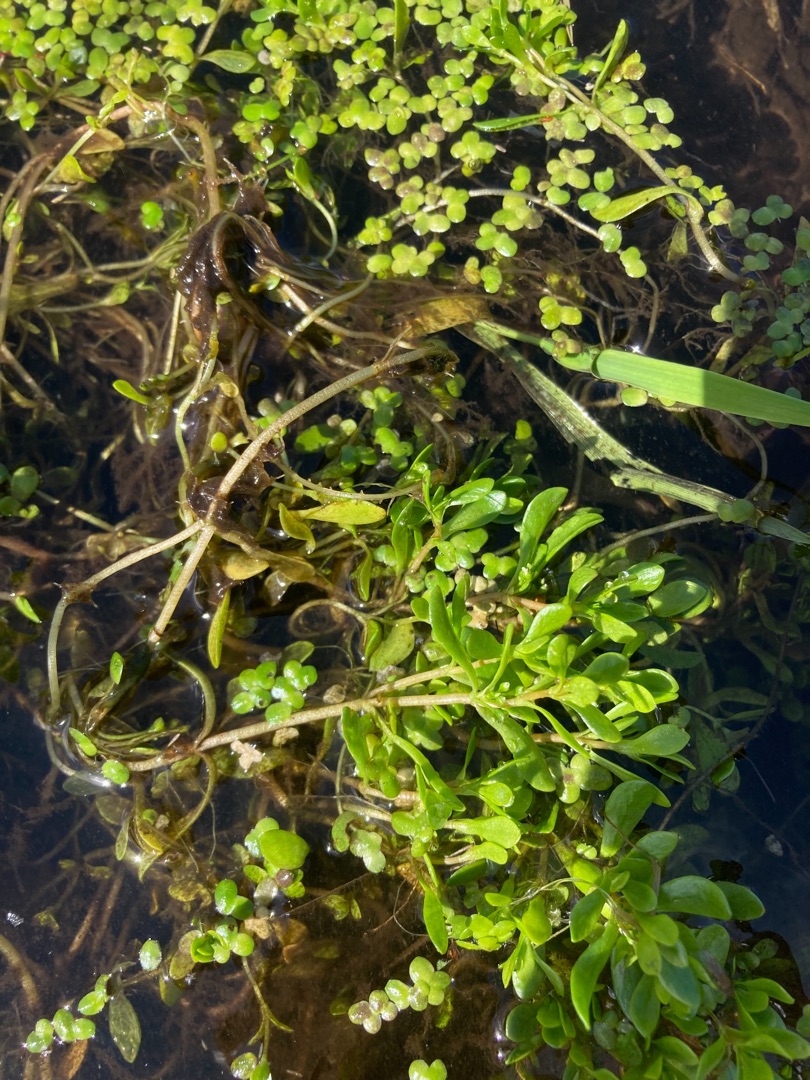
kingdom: Plantae
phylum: Tracheophyta
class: Magnoliopsida
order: Caryophyllales
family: Montiaceae
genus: Montia
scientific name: Montia fontana
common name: Stor vandarve
